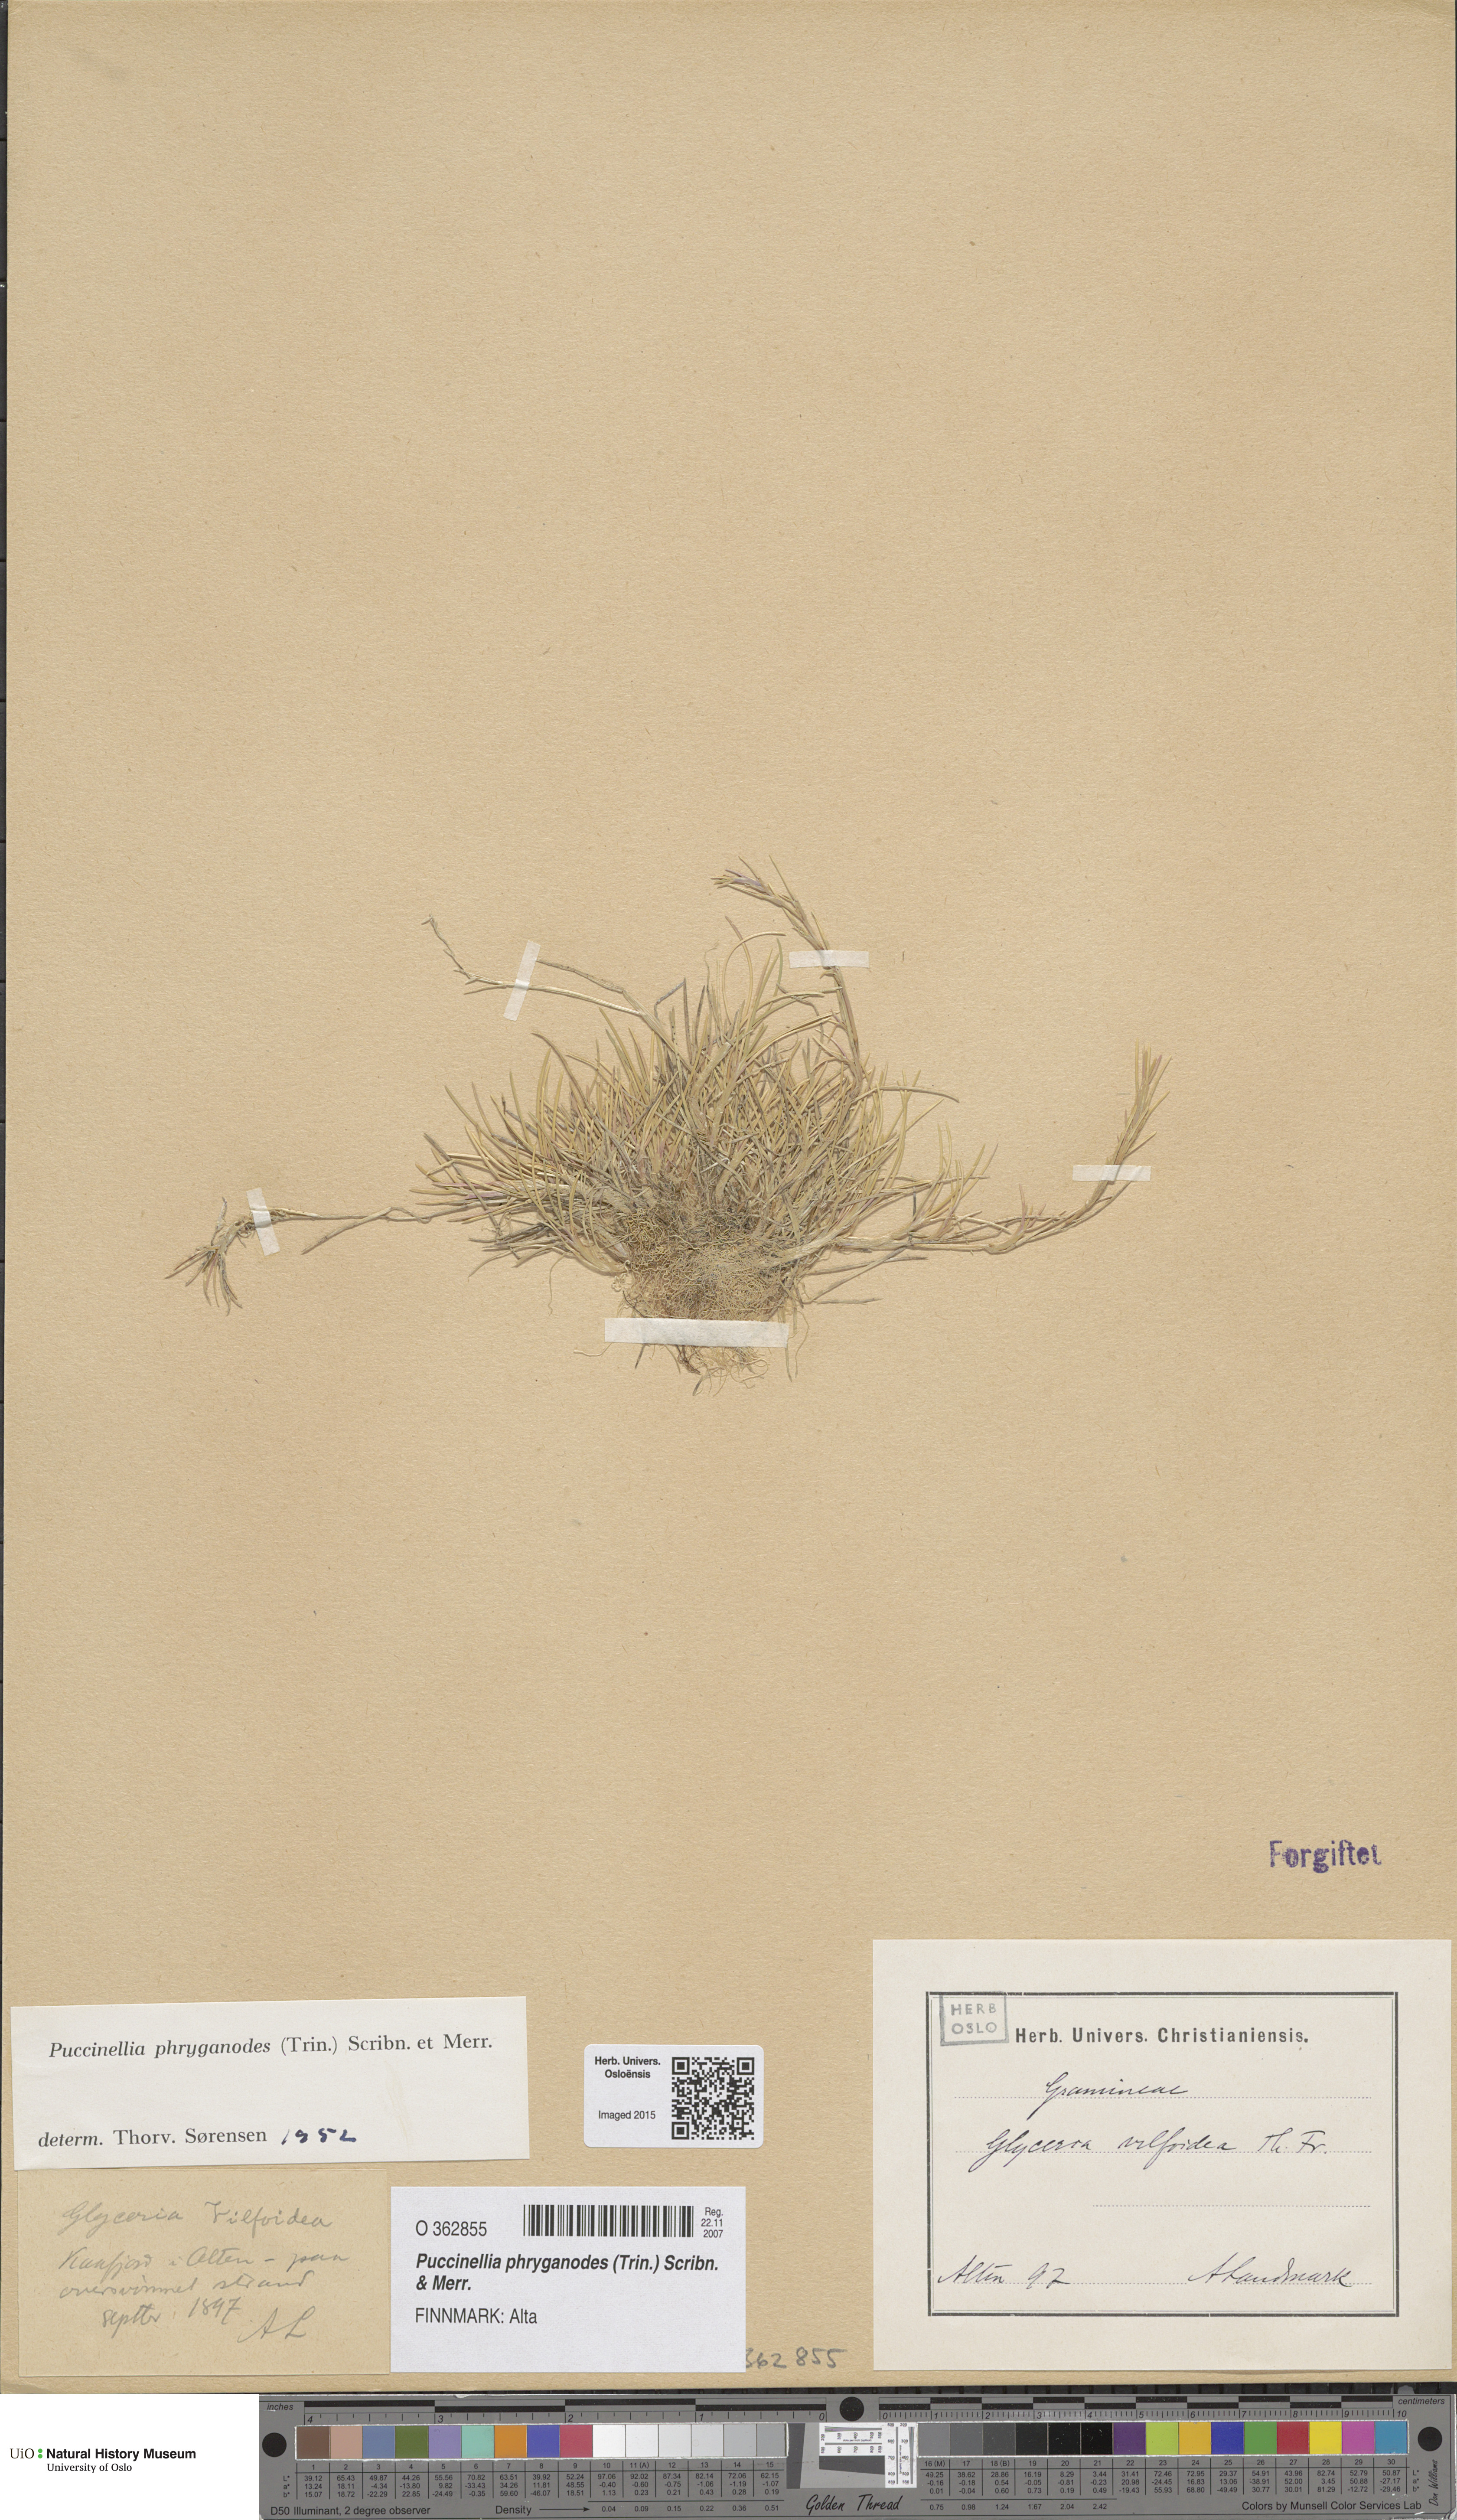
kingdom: Plantae
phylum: Tracheophyta
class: Liliopsida
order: Poales
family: Poaceae
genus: Puccinellia
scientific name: Puccinellia phryganodes
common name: Creeping alkaligrass
